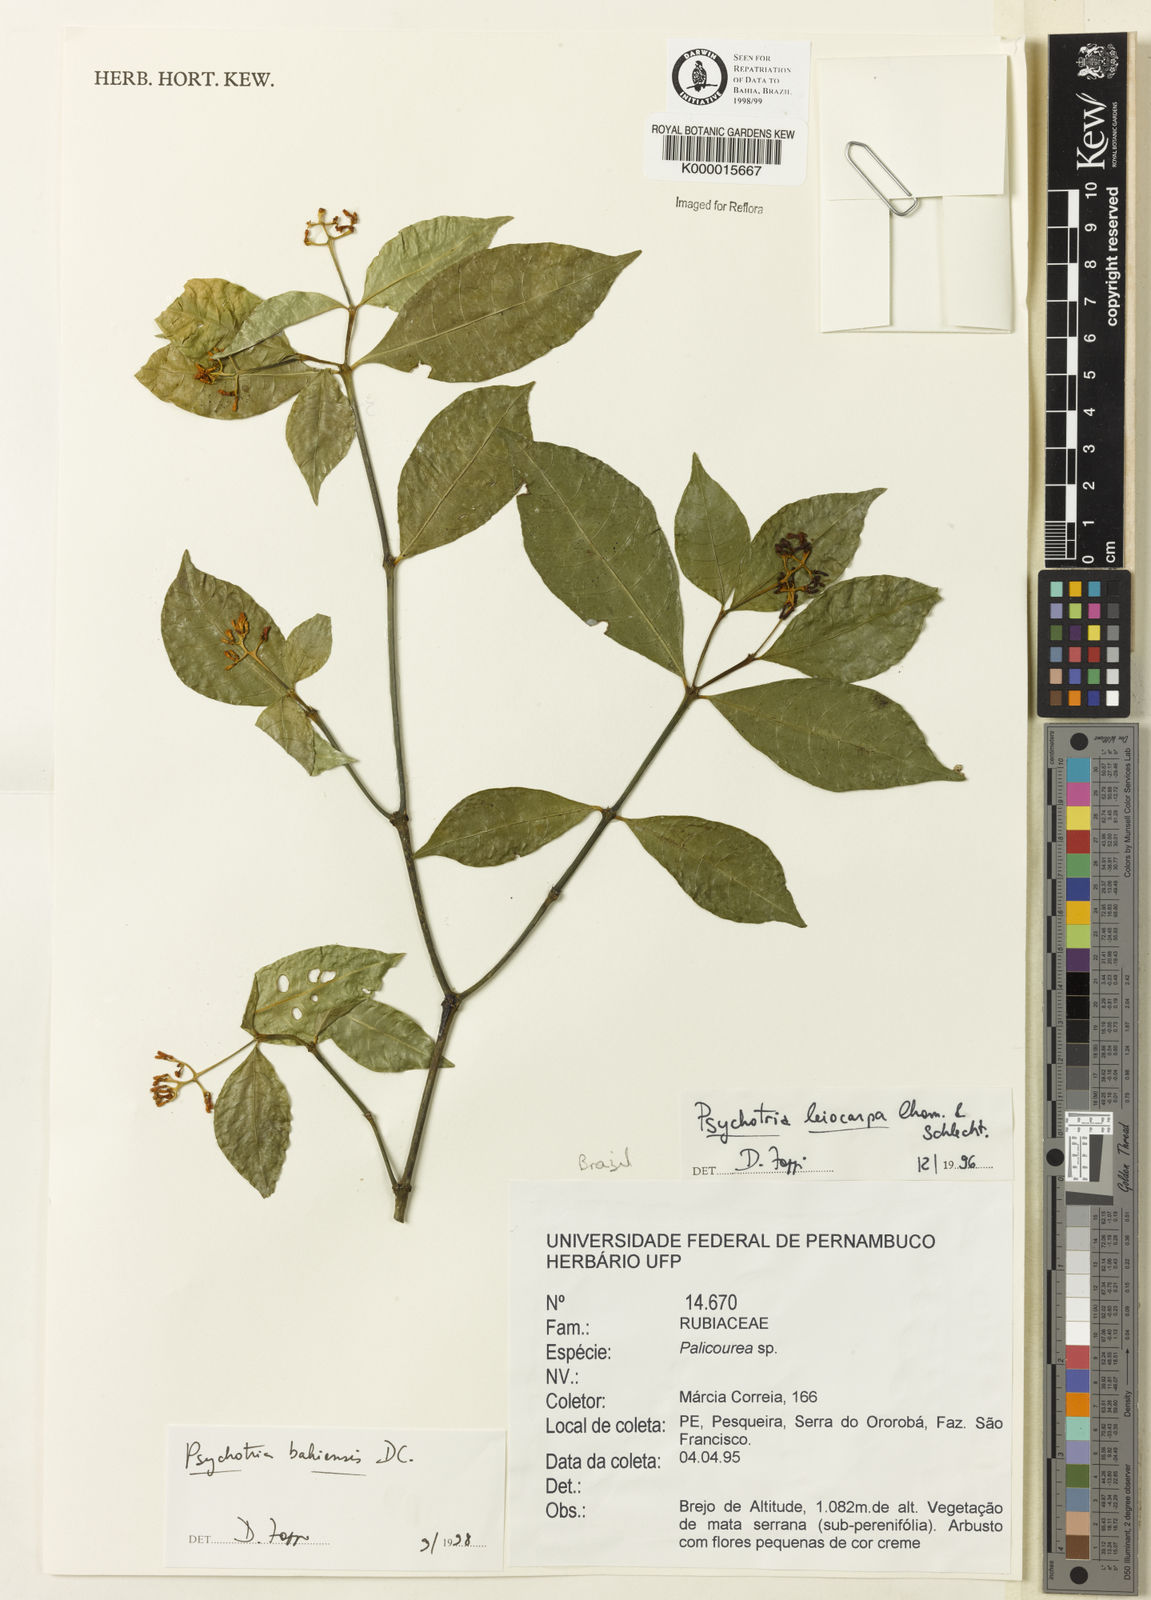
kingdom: Plantae
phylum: Tracheophyta
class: Magnoliopsida
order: Gentianales
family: Rubiaceae
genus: Psychotria
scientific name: Psychotria bahiensis
